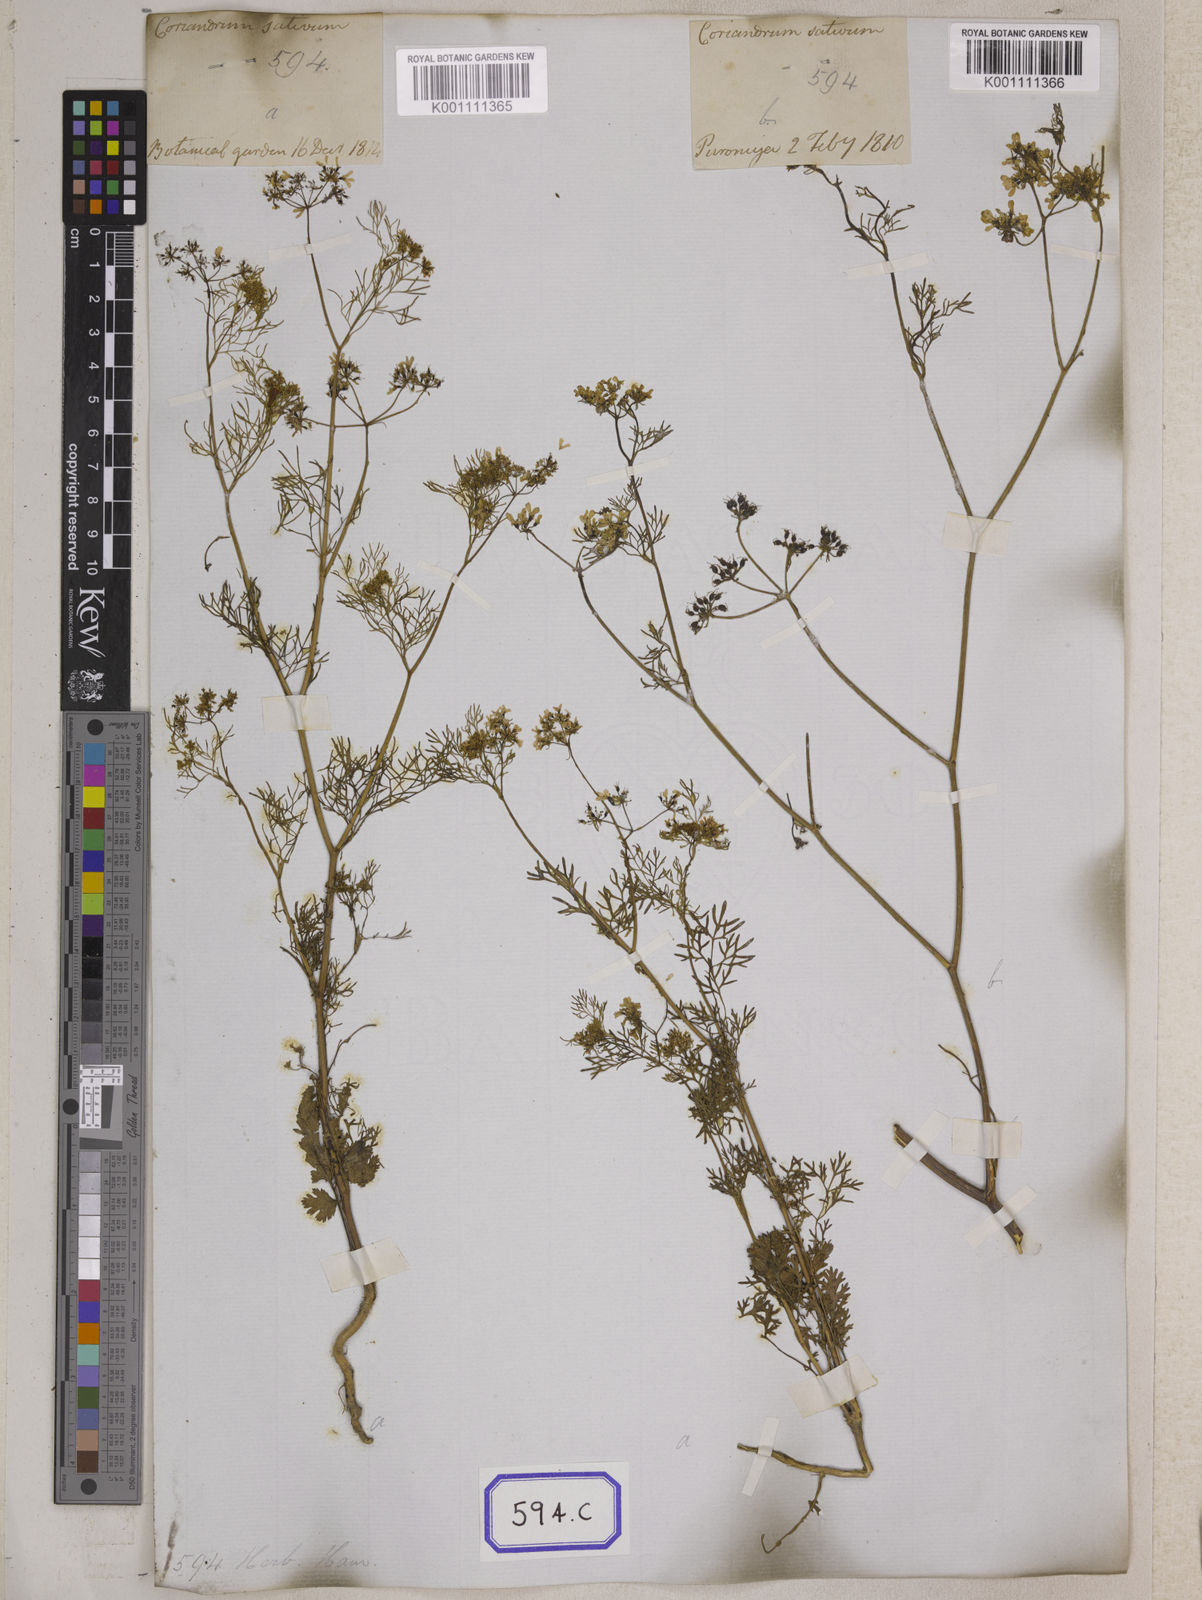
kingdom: Plantae
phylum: Tracheophyta
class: Magnoliopsida
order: Apiales
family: Apiaceae
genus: Cuminum
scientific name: Cuminum cyminum
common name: Cumin
